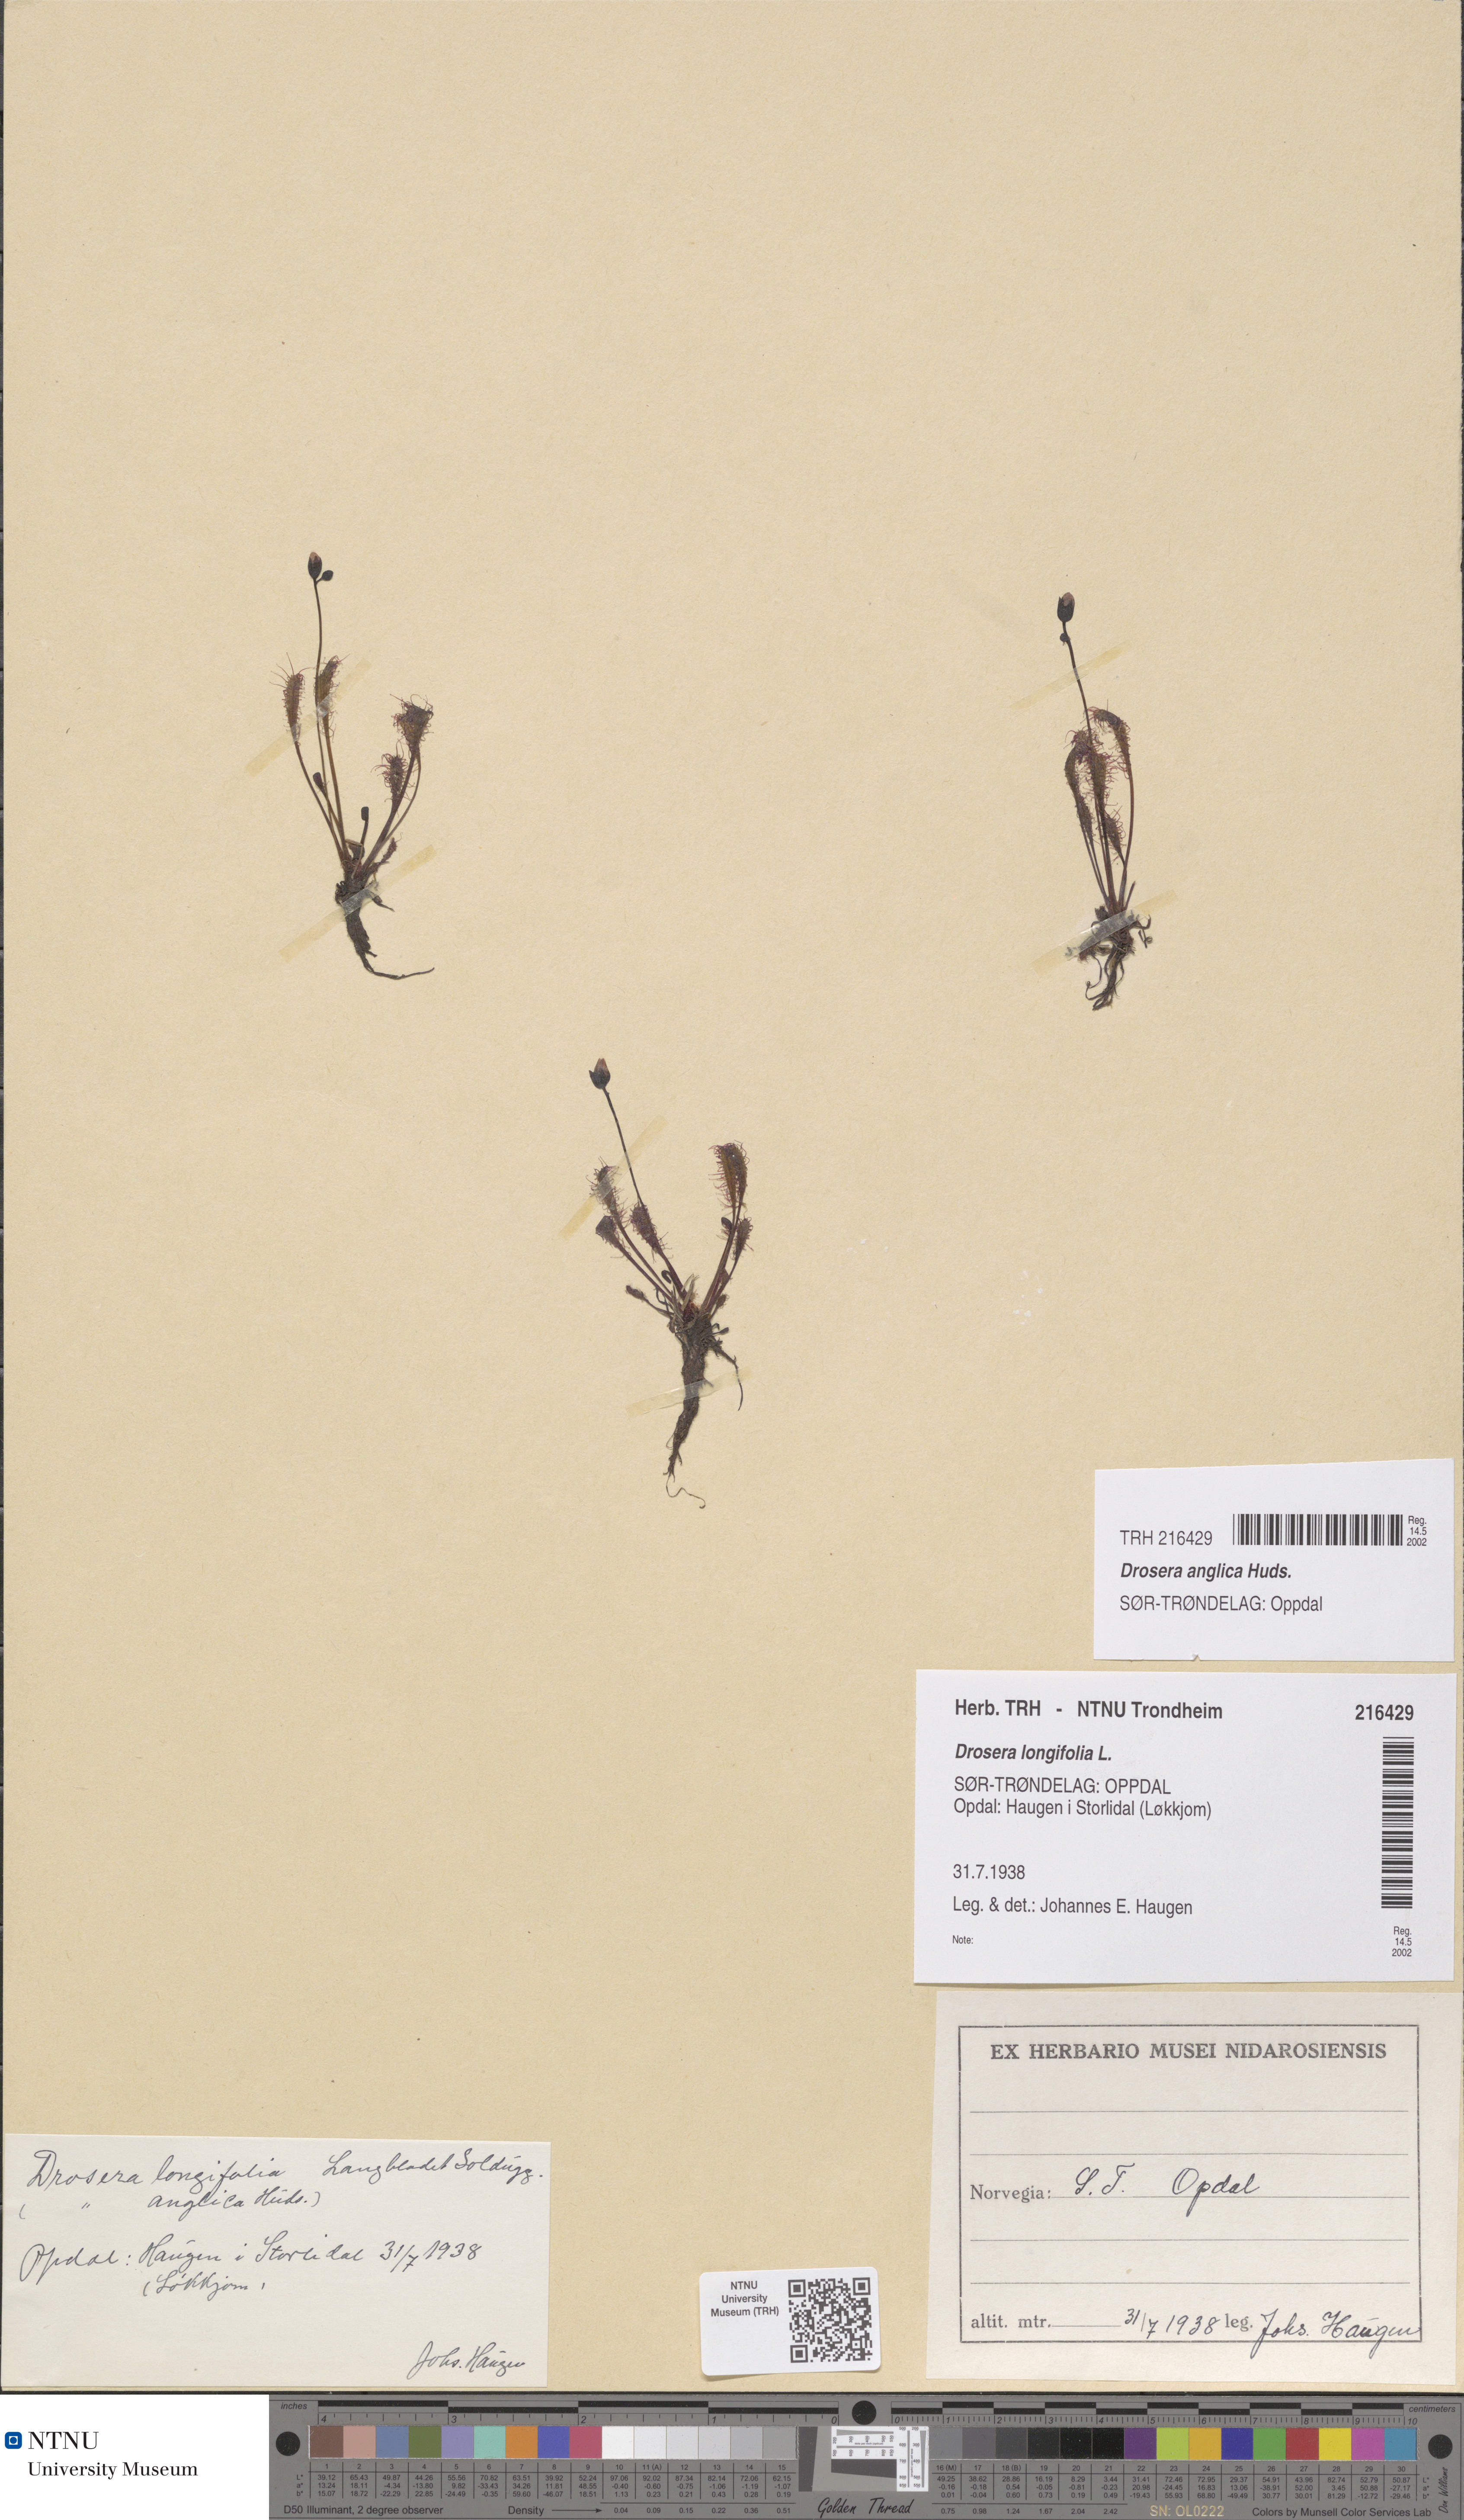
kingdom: Plantae
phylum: Tracheophyta
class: Magnoliopsida
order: Caryophyllales
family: Droseraceae
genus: Drosera
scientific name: Drosera anglica
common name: Great sundew
